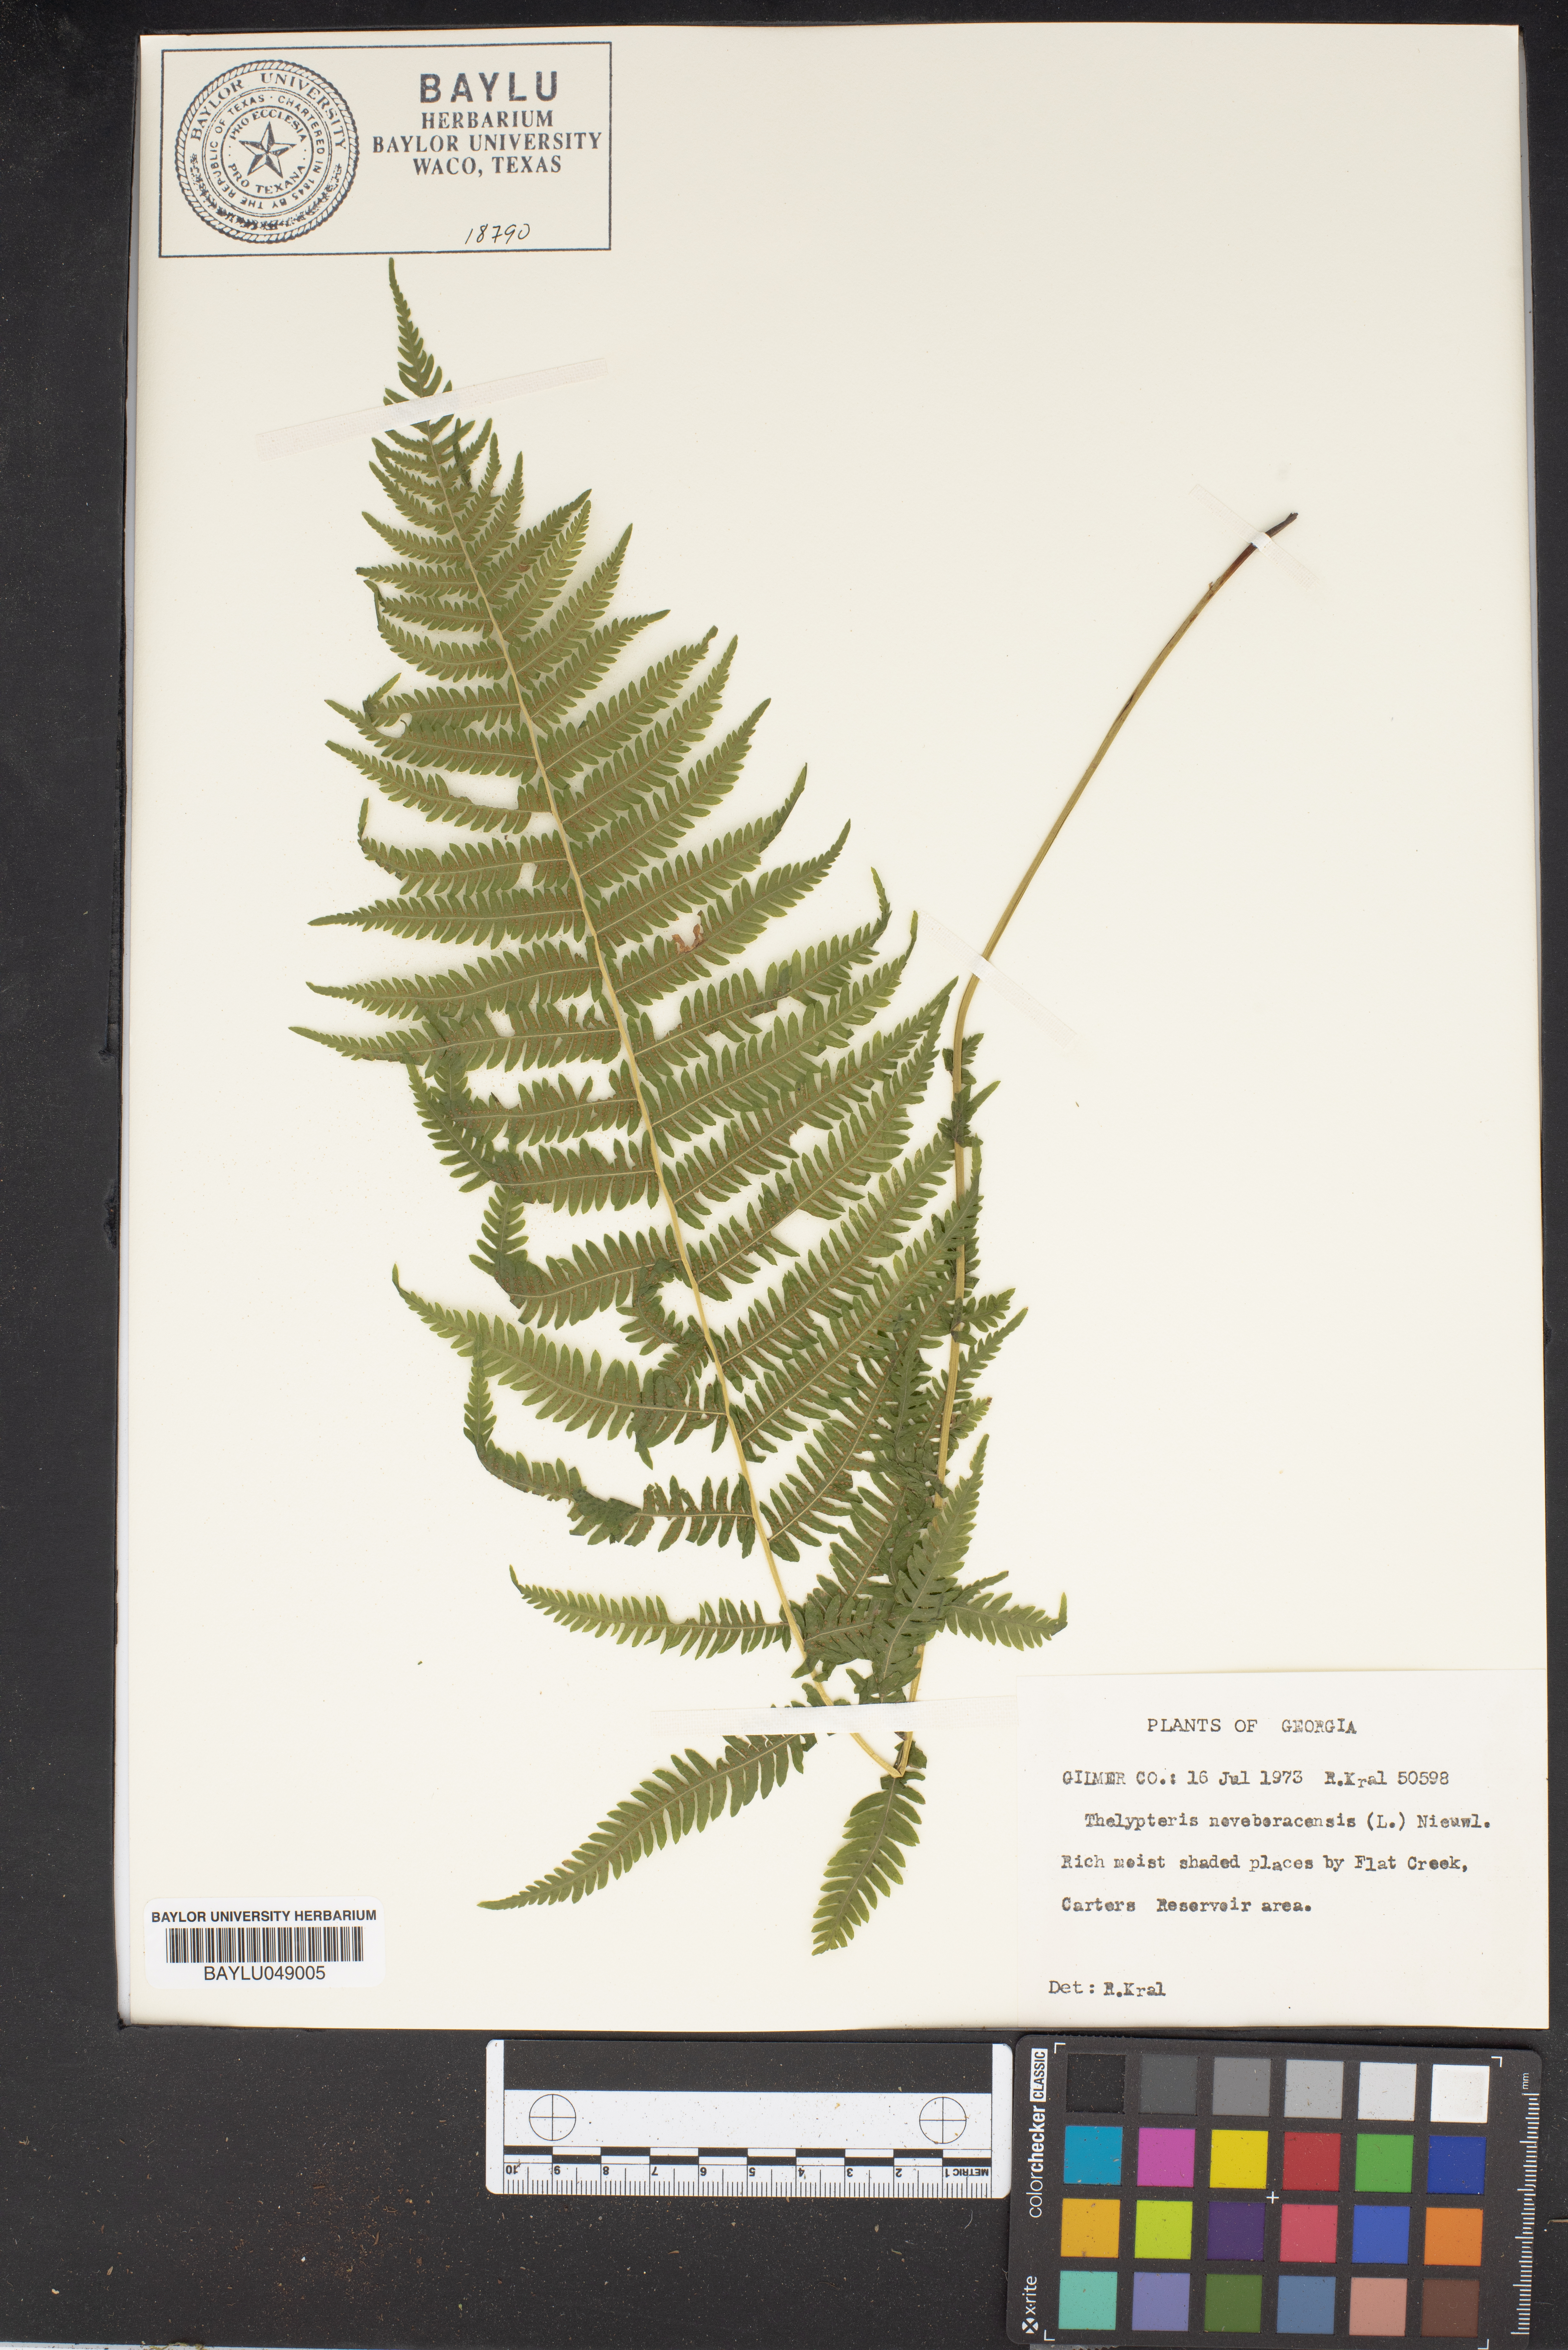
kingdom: Plantae
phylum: Tracheophyta
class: Polypodiopsida
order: Polypodiales
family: Thelypteridaceae
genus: Amauropelta
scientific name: Amauropelta noveboracensis
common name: New york fern
